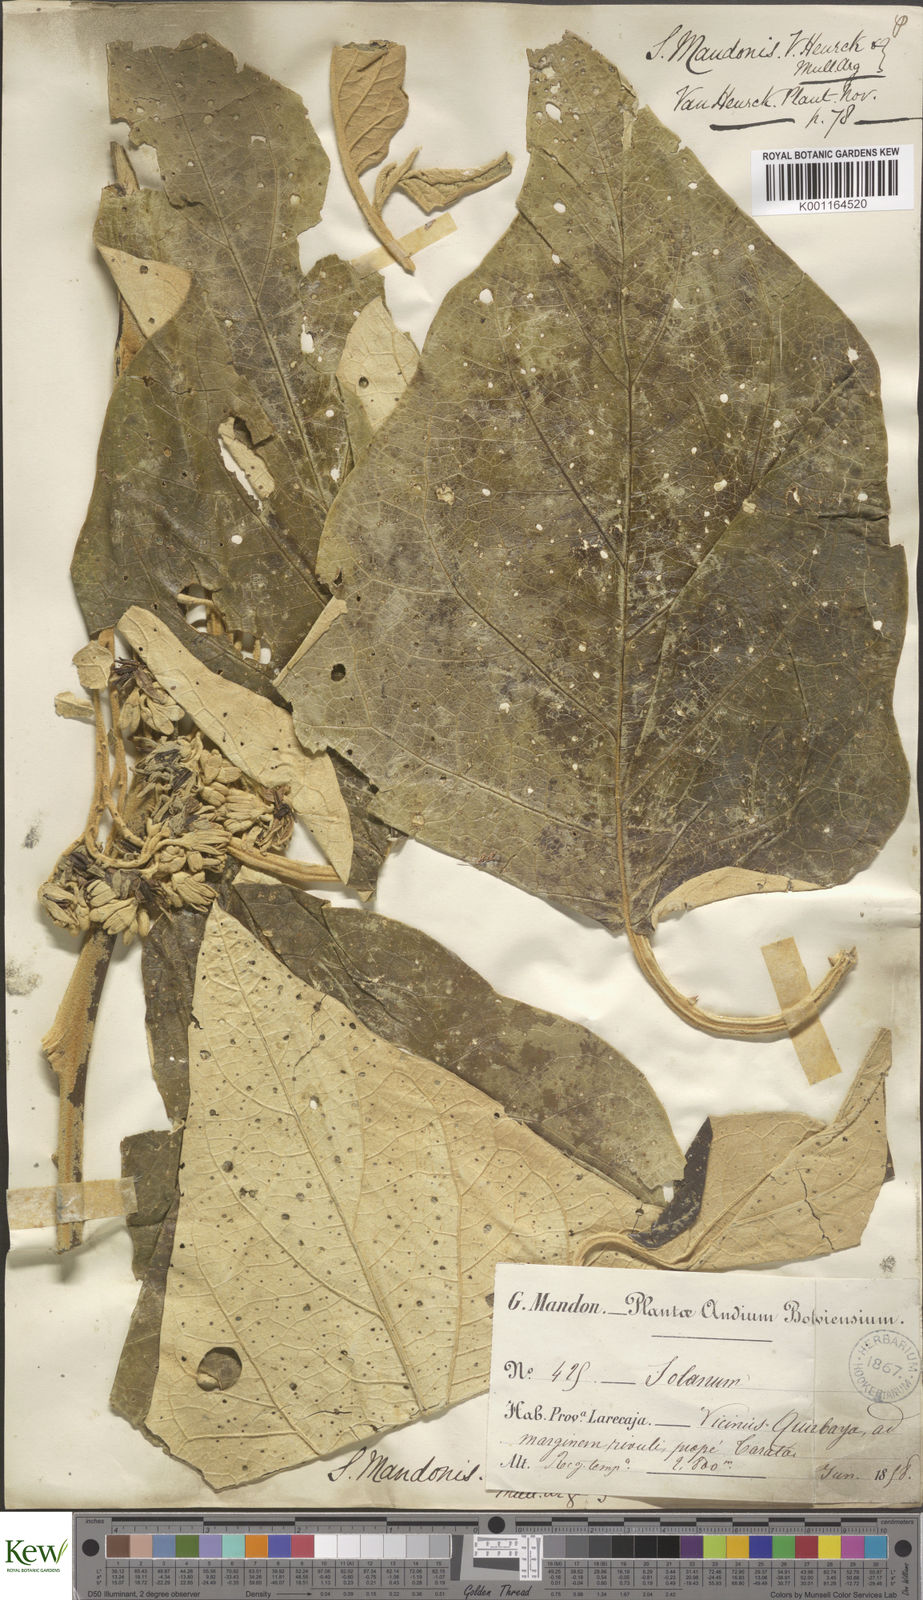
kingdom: Plantae
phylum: Tracheophyta
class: Magnoliopsida
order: Solanales
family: Solanaceae
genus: Solanum
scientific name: Solanum albidum
